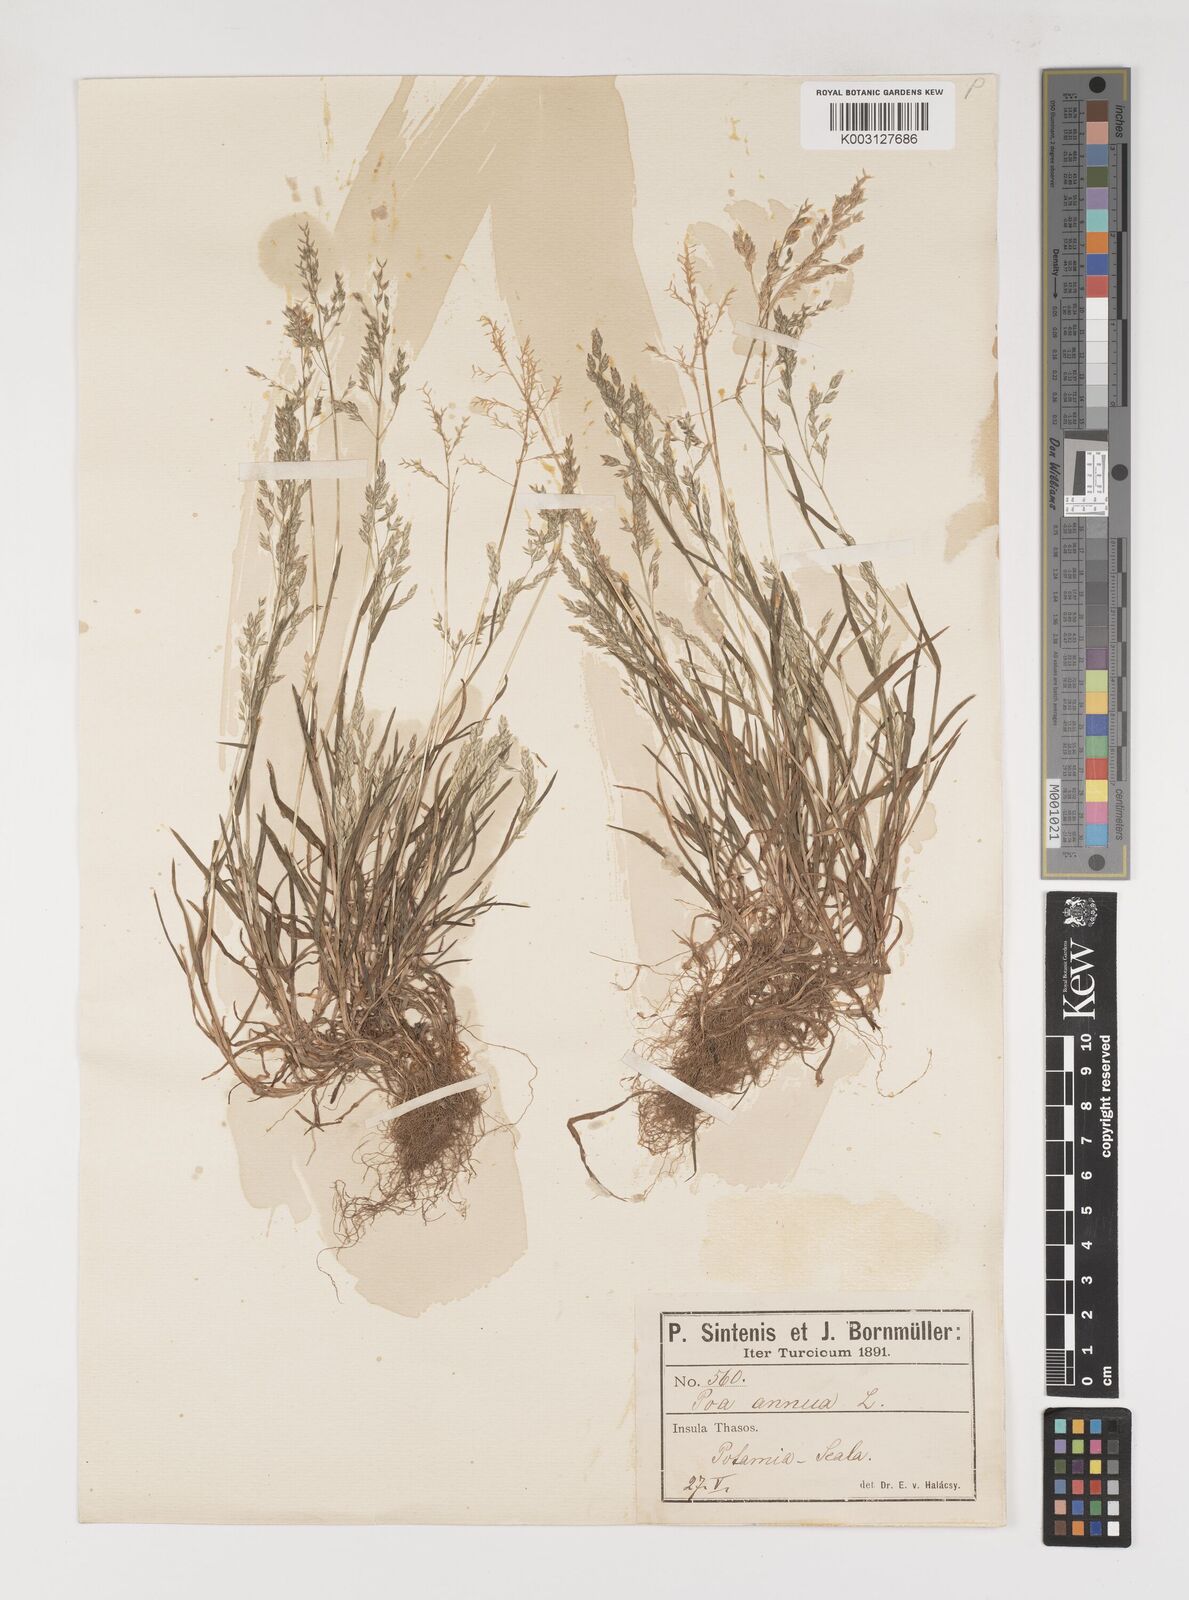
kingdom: Plantae
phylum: Tracheophyta
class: Liliopsida
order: Poales
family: Poaceae
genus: Poa
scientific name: Poa annua
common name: Annual bluegrass
